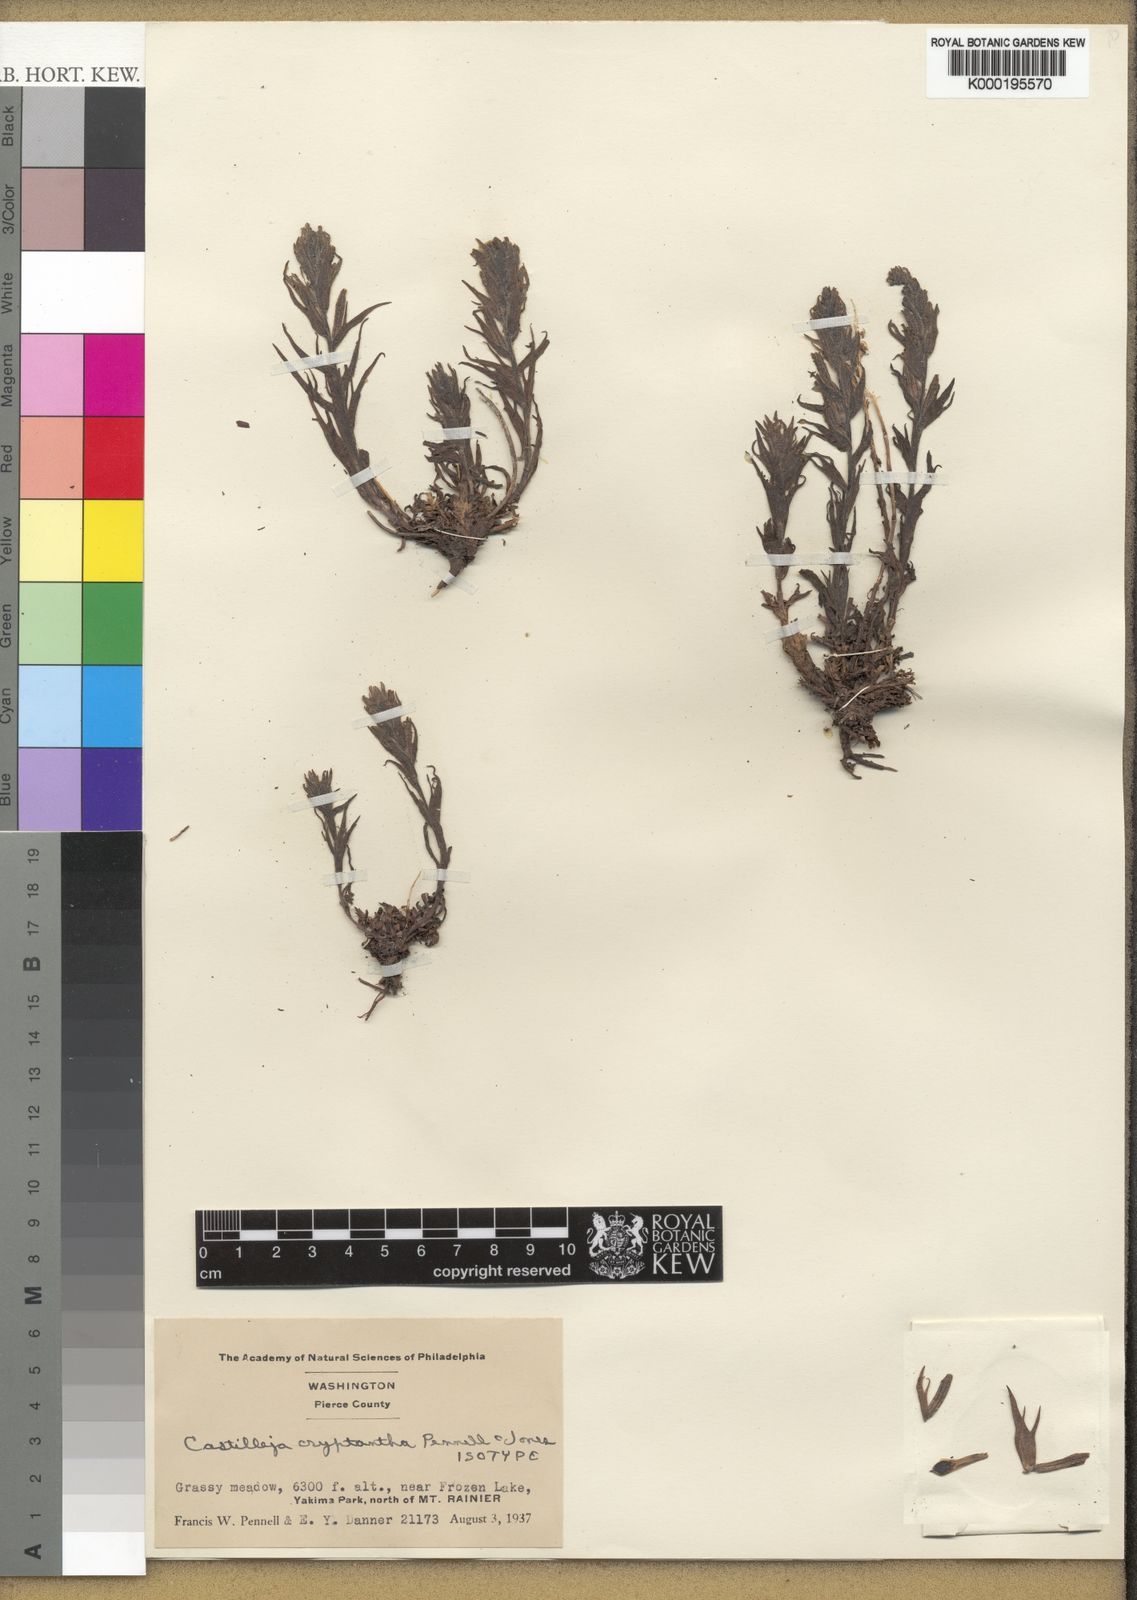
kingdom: Plantae
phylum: Tracheophyta
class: Magnoliopsida
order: Lamiales
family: Orobanchaceae
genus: Castilleja
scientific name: Castilleja cryptantha
